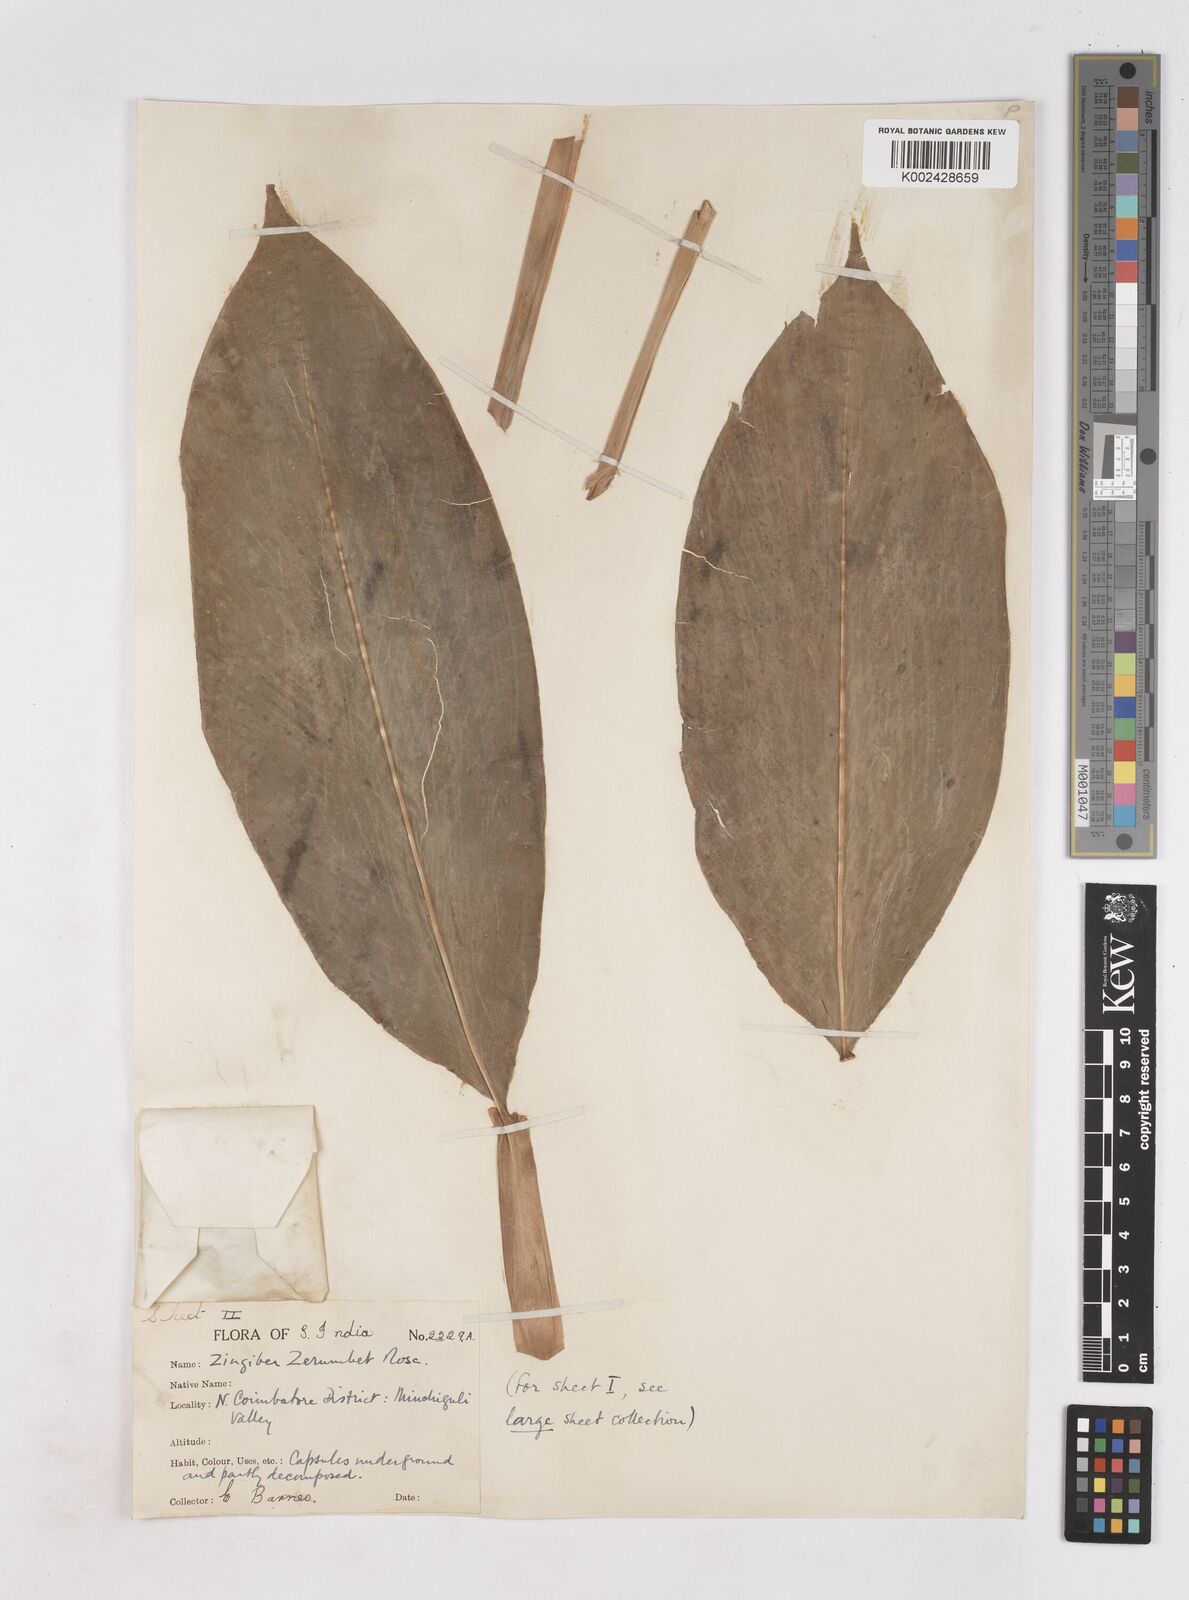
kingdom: Plantae
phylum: Tracheophyta
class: Liliopsida
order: Zingiberales
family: Zingiberaceae
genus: Zingiber
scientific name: Zingiber zerumbet
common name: Bitter ginger
